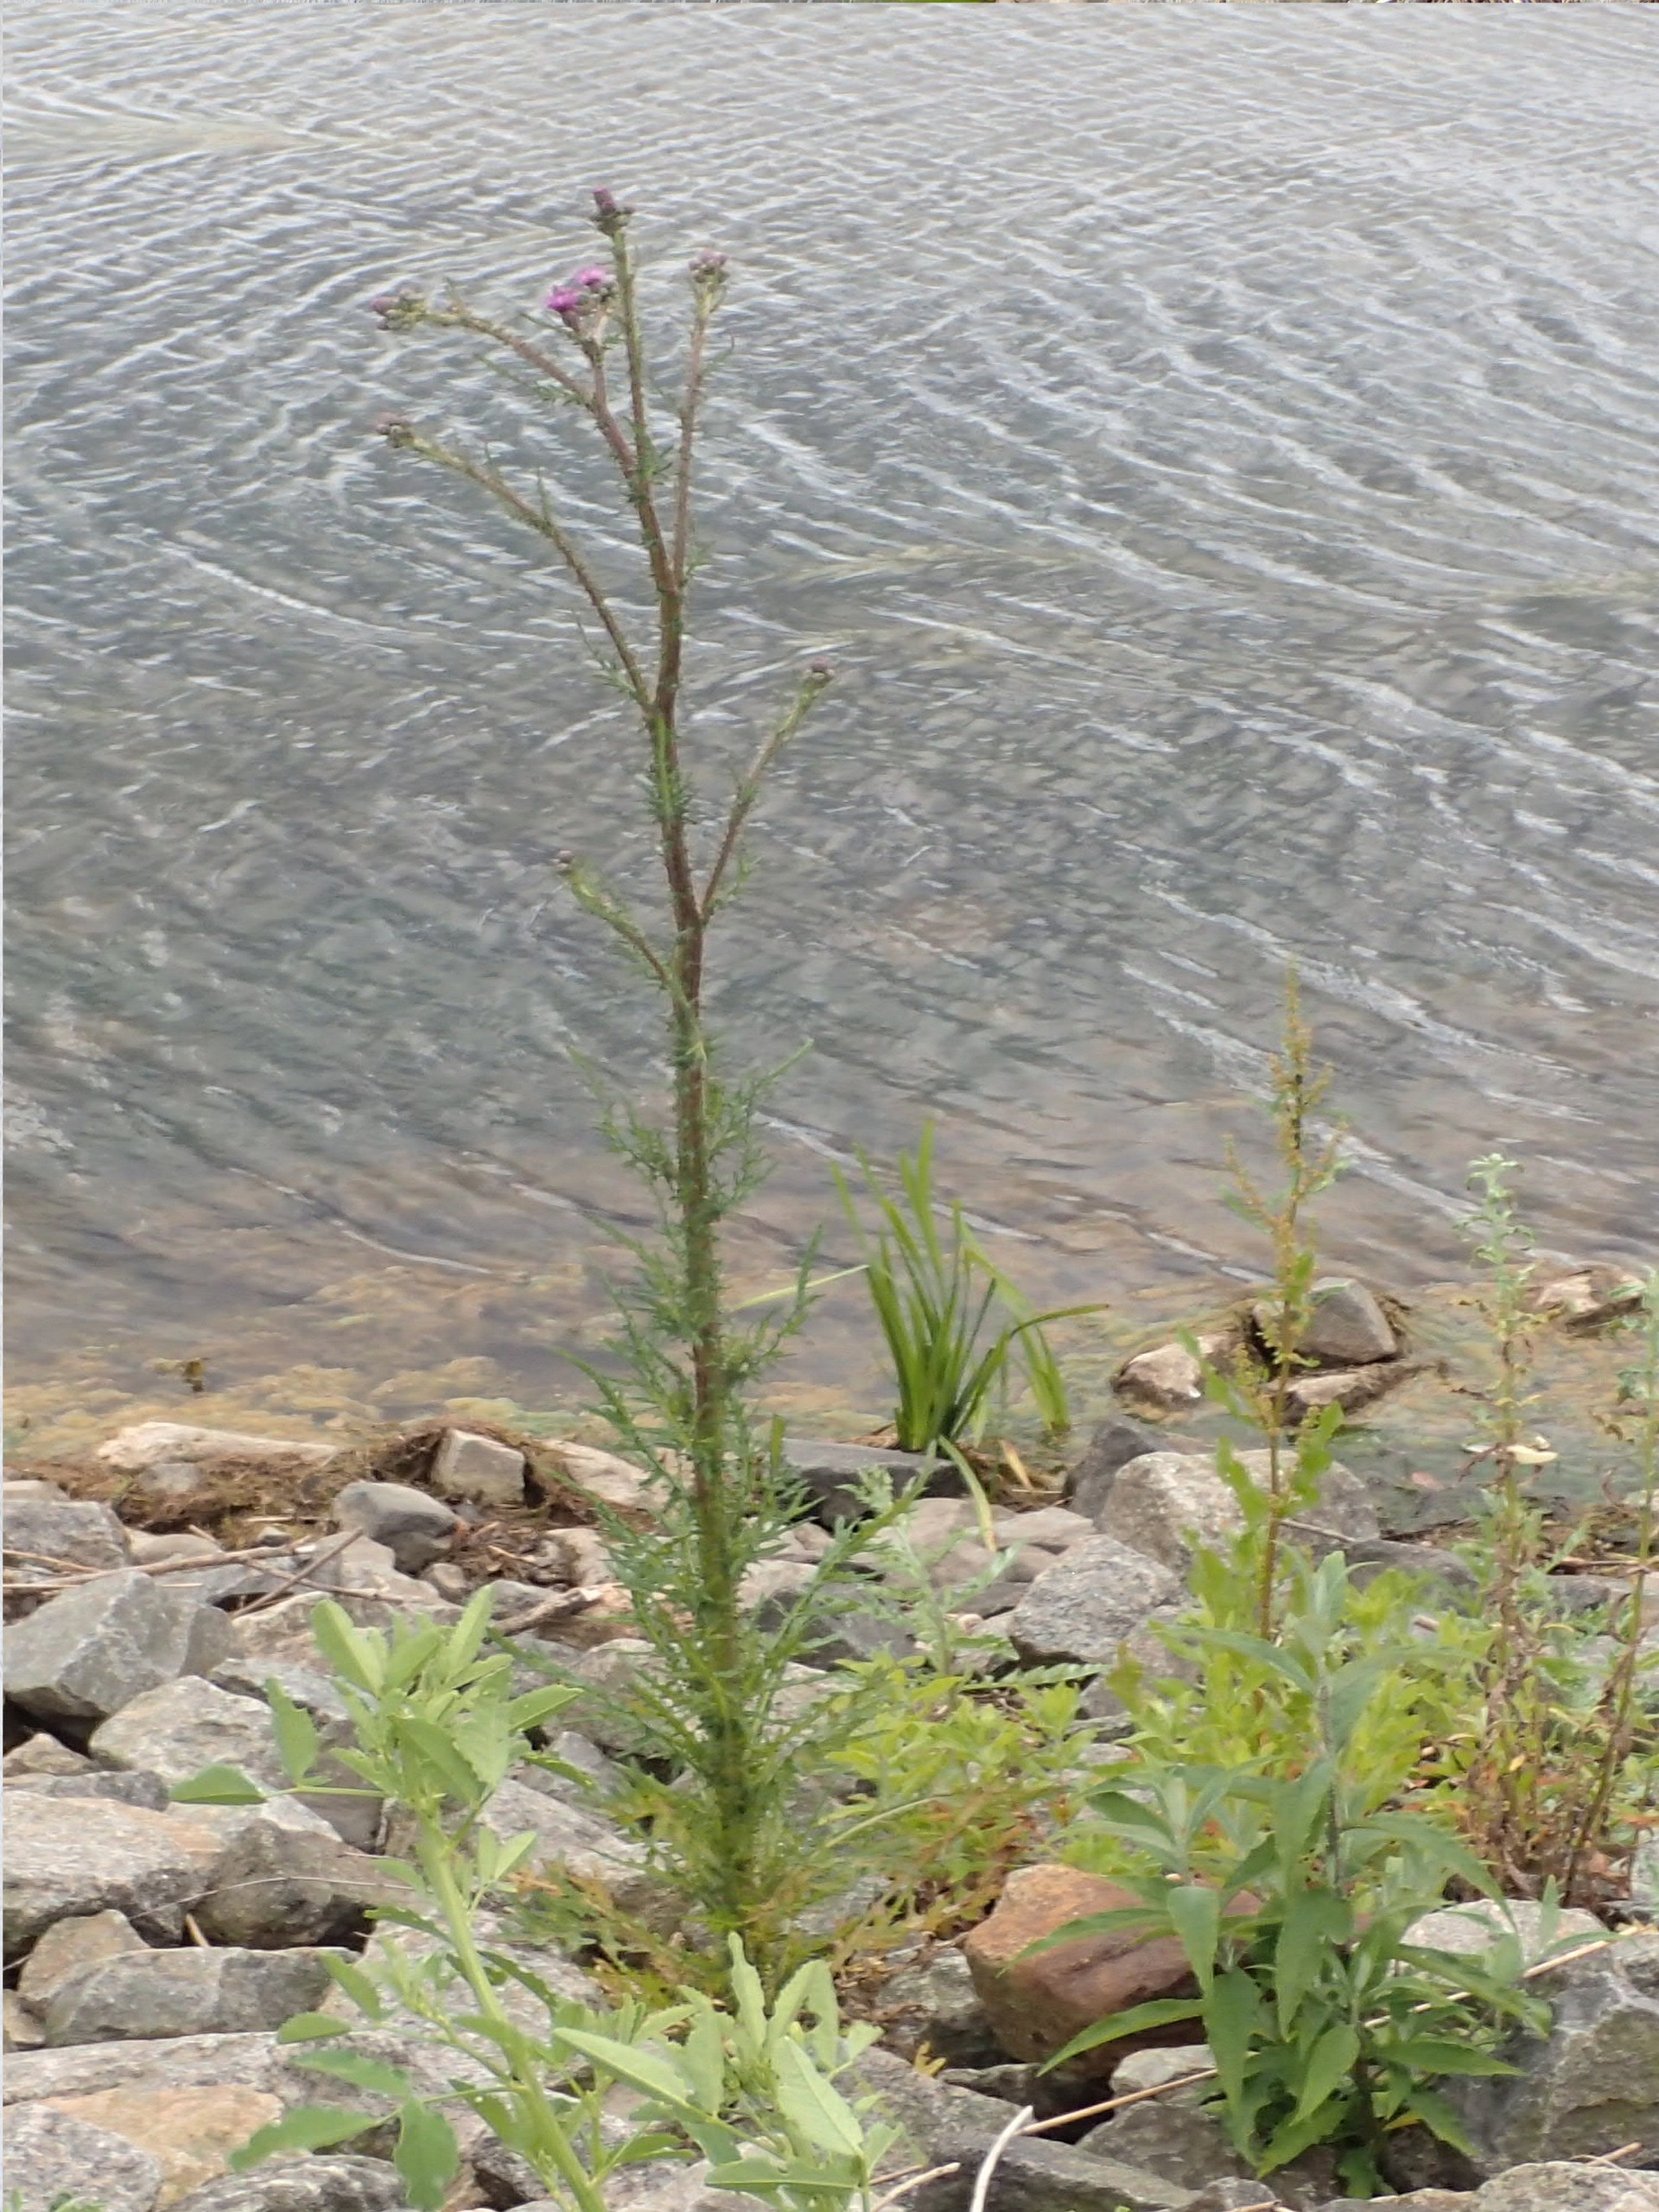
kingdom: Plantae
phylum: Tracheophyta
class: Magnoliopsida
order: Asterales
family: Asteraceae
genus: Cirsium
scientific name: Cirsium palustre
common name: Kær-tidsel
